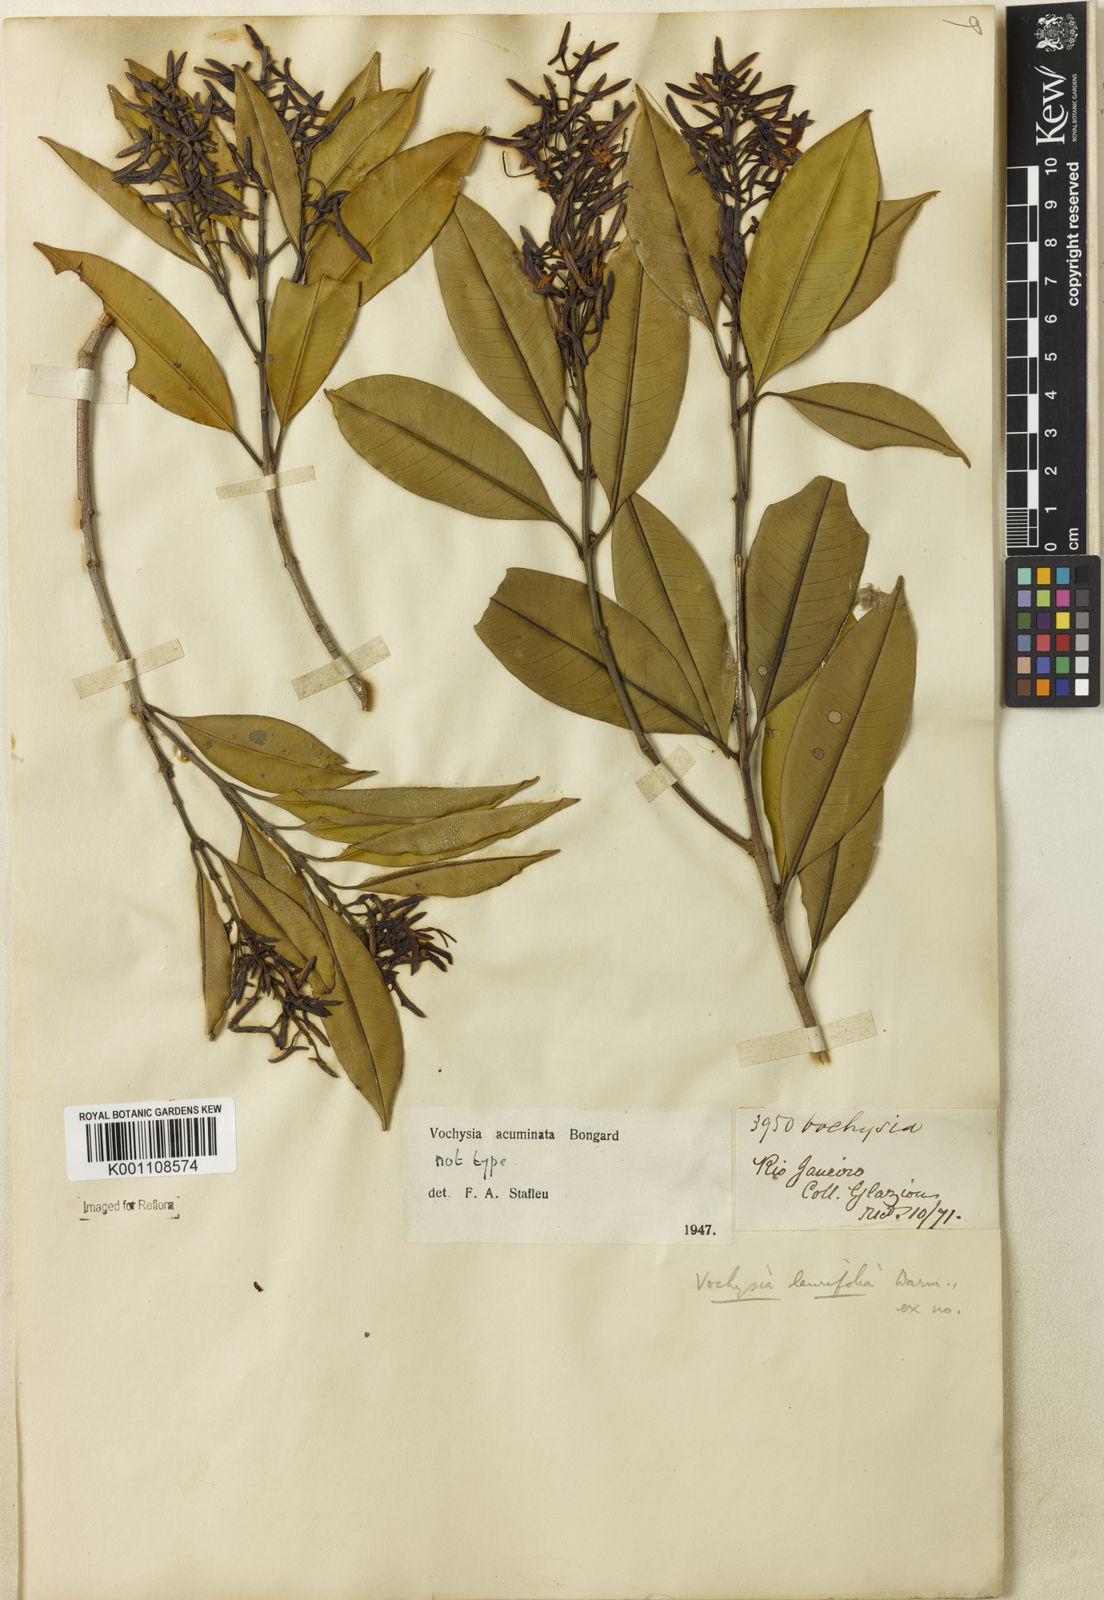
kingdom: Plantae
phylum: Tracheophyta
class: Magnoliopsida
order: Myrtales
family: Vochysiaceae
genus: Vochysia
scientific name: Vochysia laurifolia
